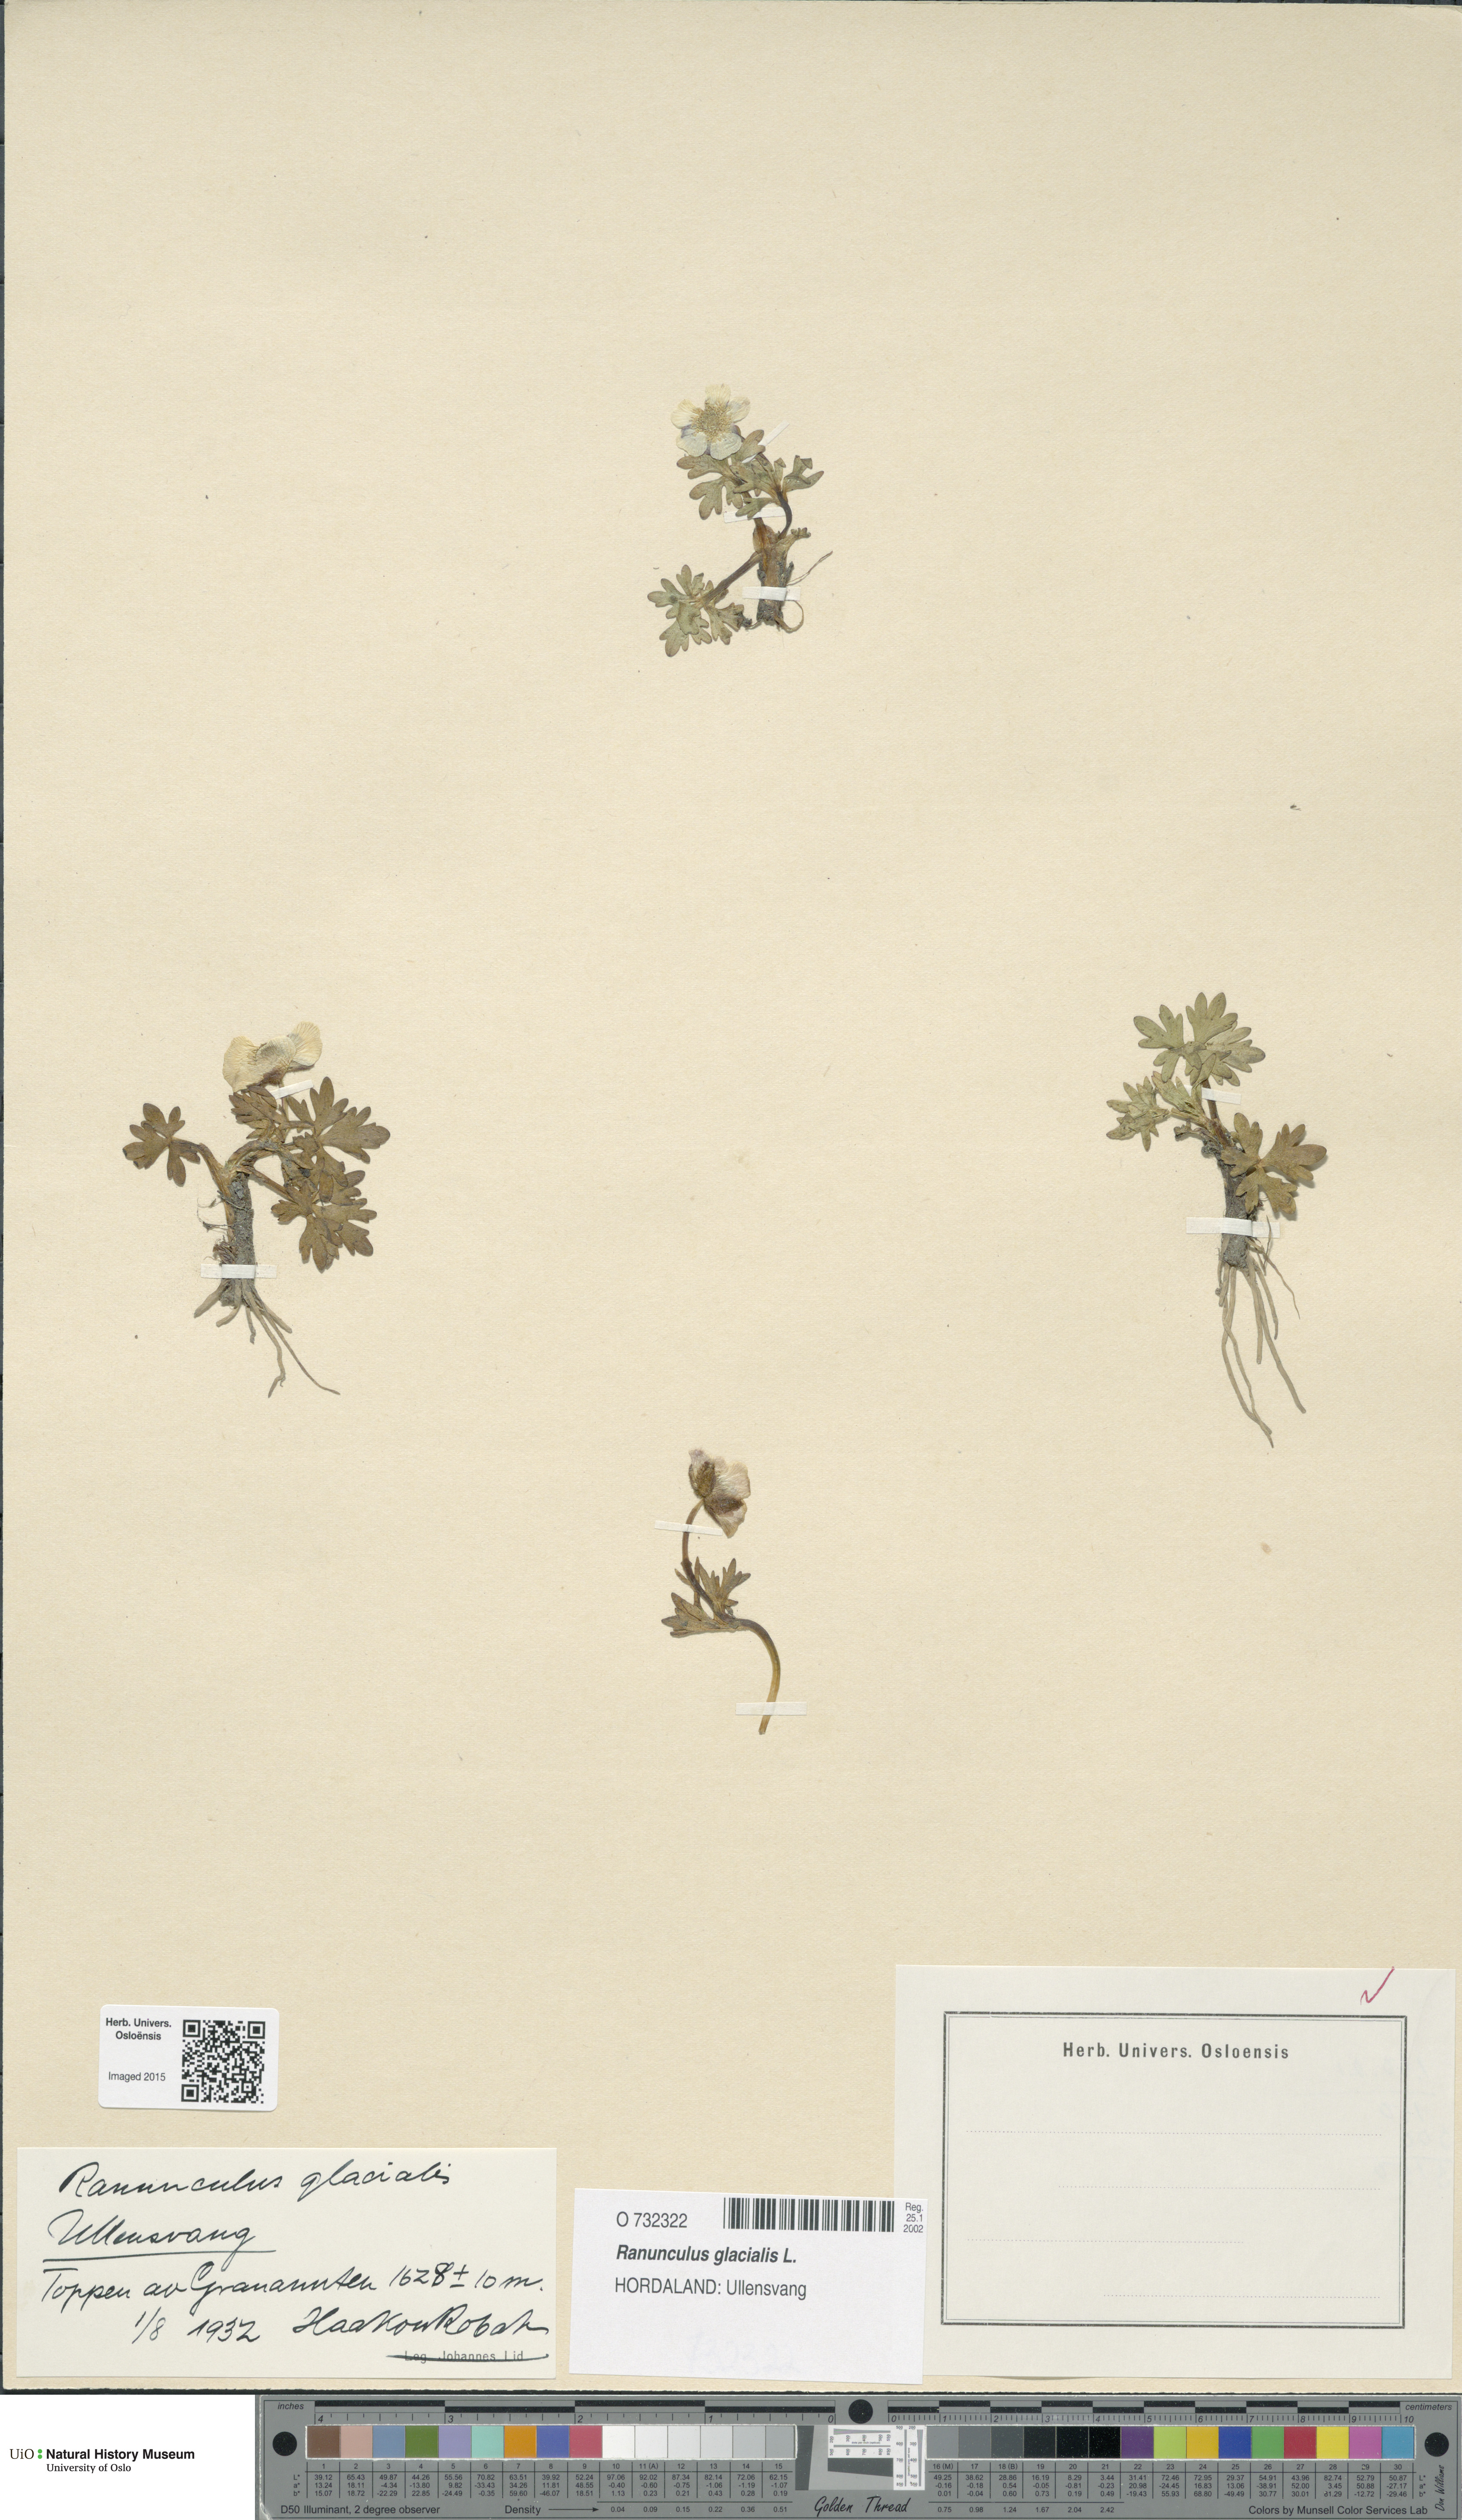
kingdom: Plantae
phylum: Tracheophyta
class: Magnoliopsida
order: Ranunculales
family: Ranunculaceae
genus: Ranunculus
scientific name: Ranunculus glacialis
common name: Glacier buttercup
